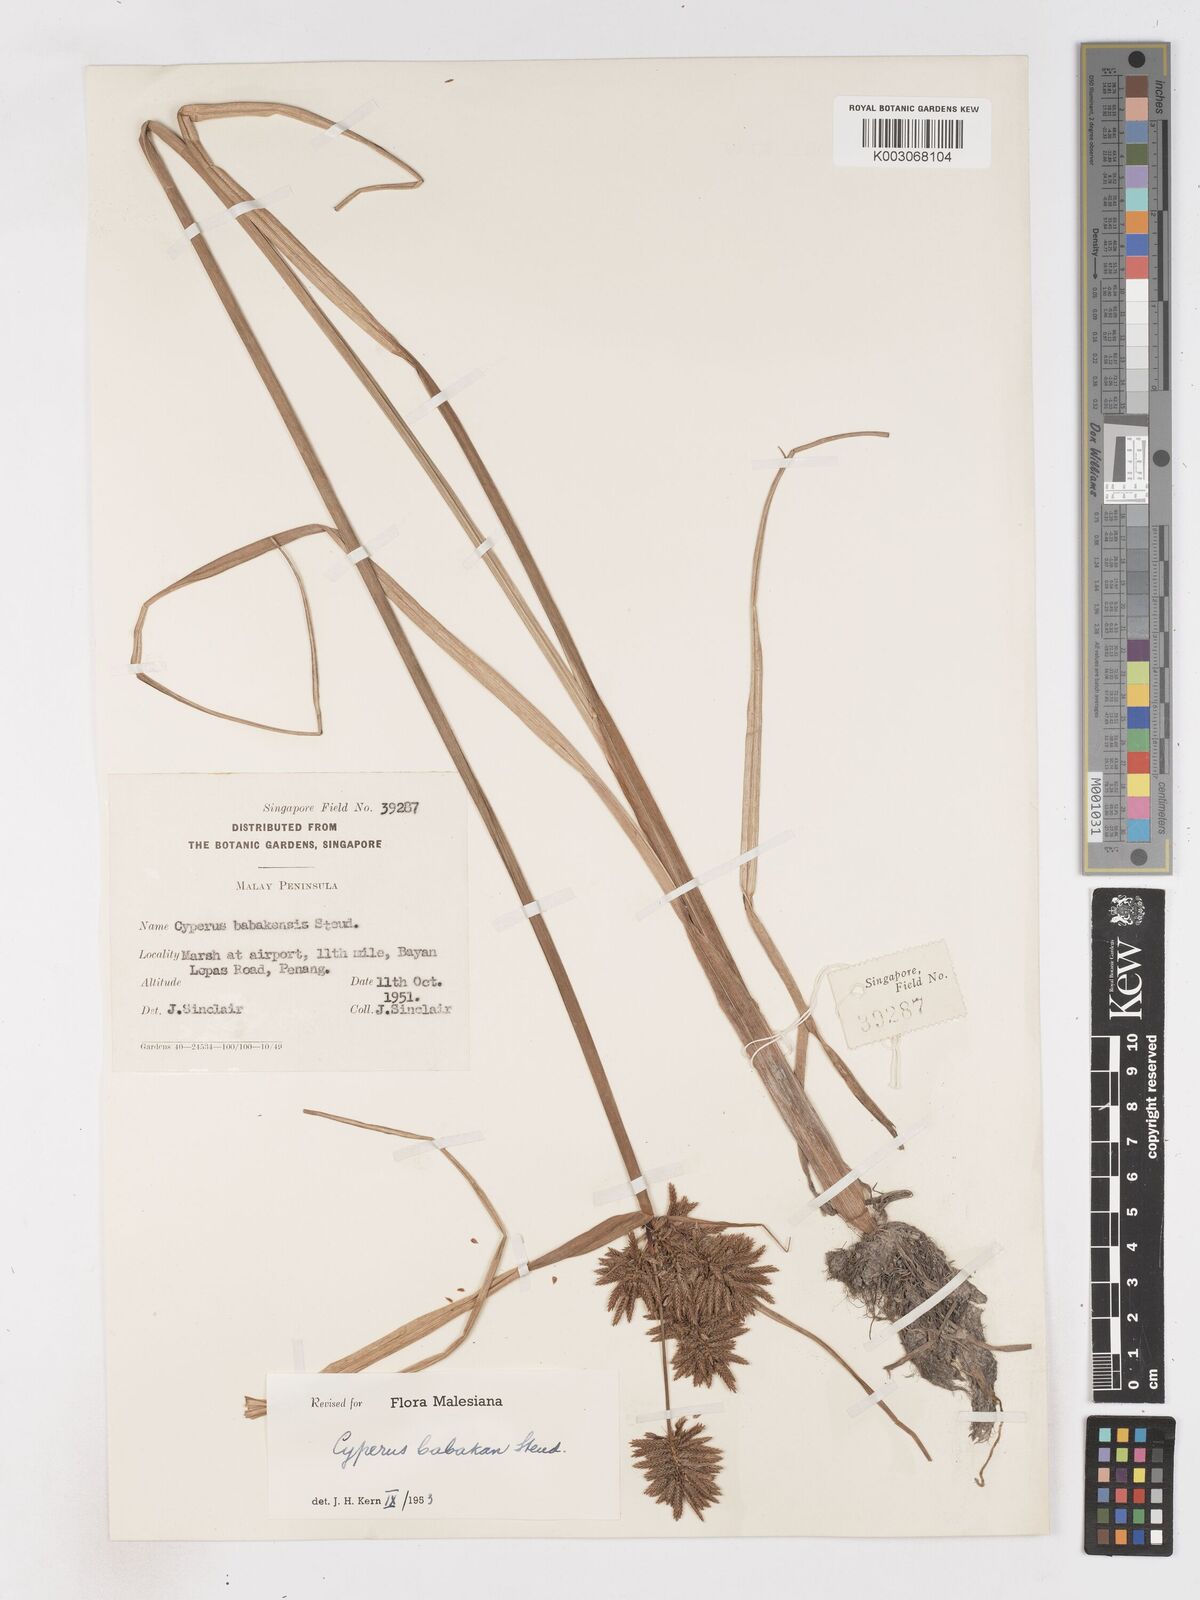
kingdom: Plantae
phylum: Tracheophyta
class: Liliopsida
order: Poales
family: Cyperaceae
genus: Cyperus
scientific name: Cyperus babakan
